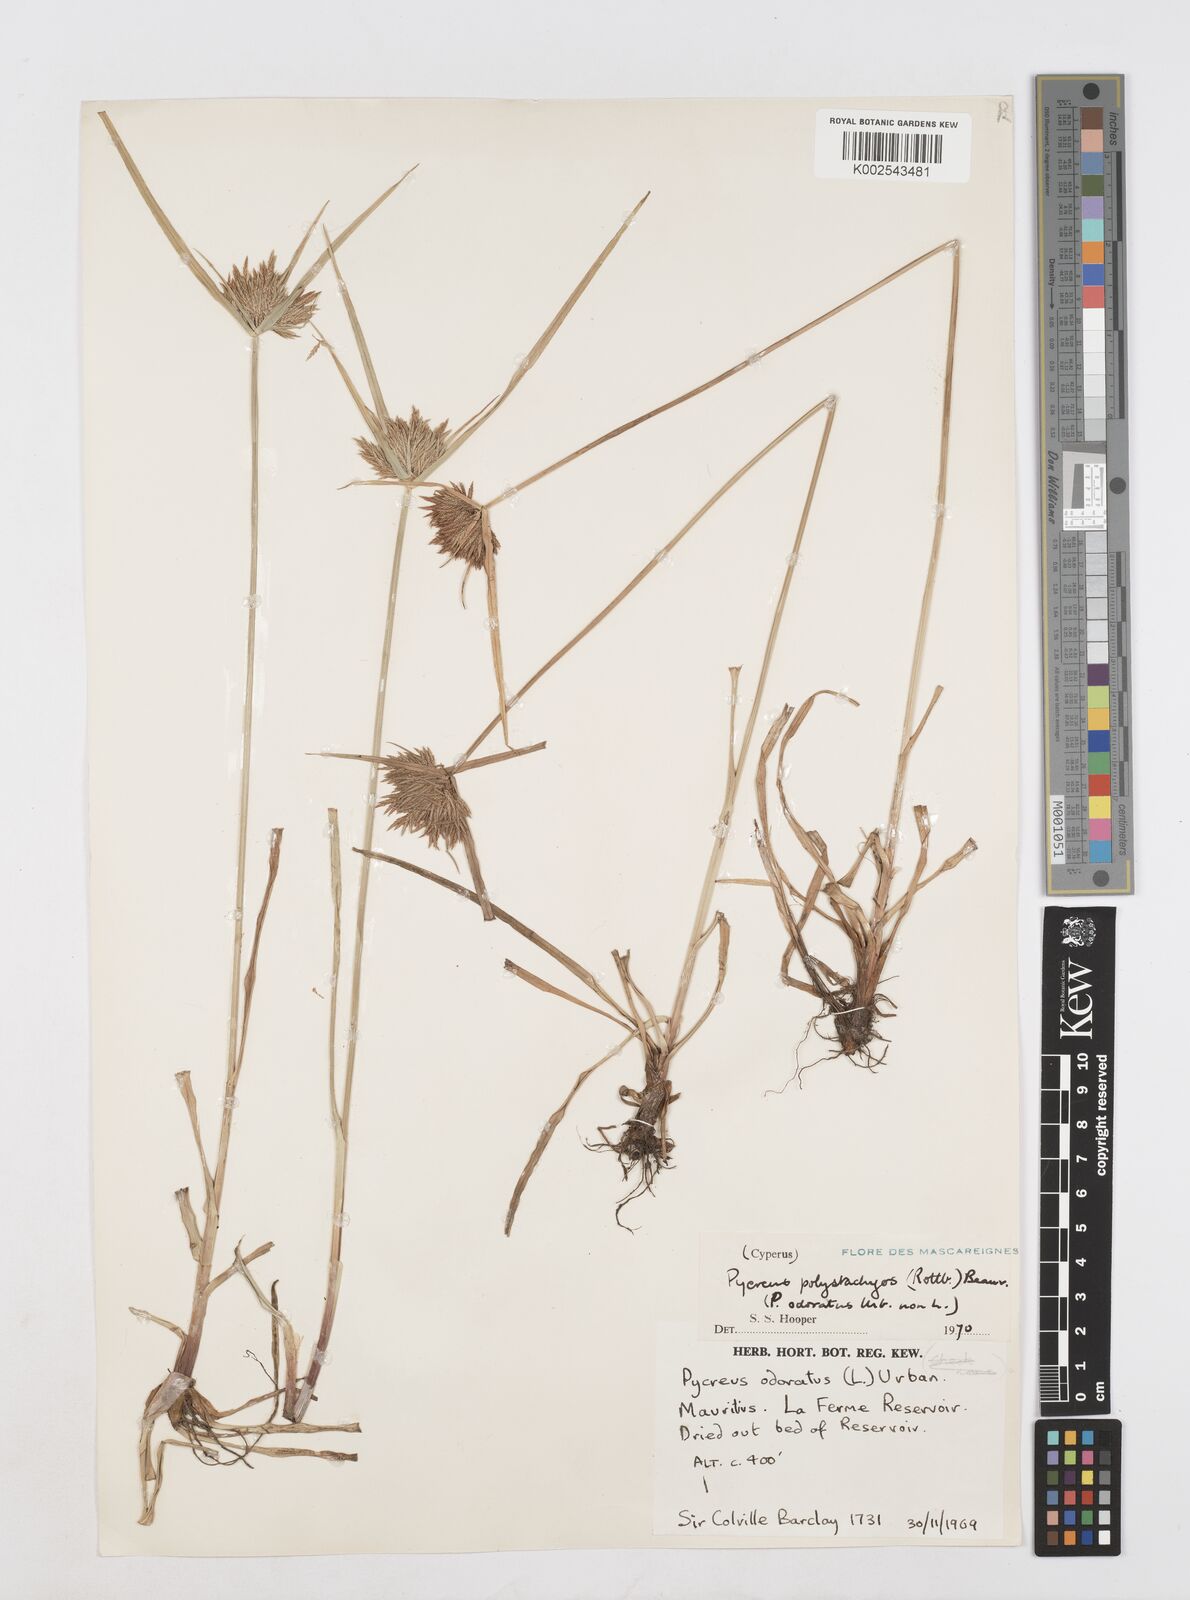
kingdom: Plantae
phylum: Tracheophyta
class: Liliopsida
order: Poales
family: Cyperaceae
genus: Cyperus
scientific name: Cyperus polystachyos
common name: Bunchy flat sedge
